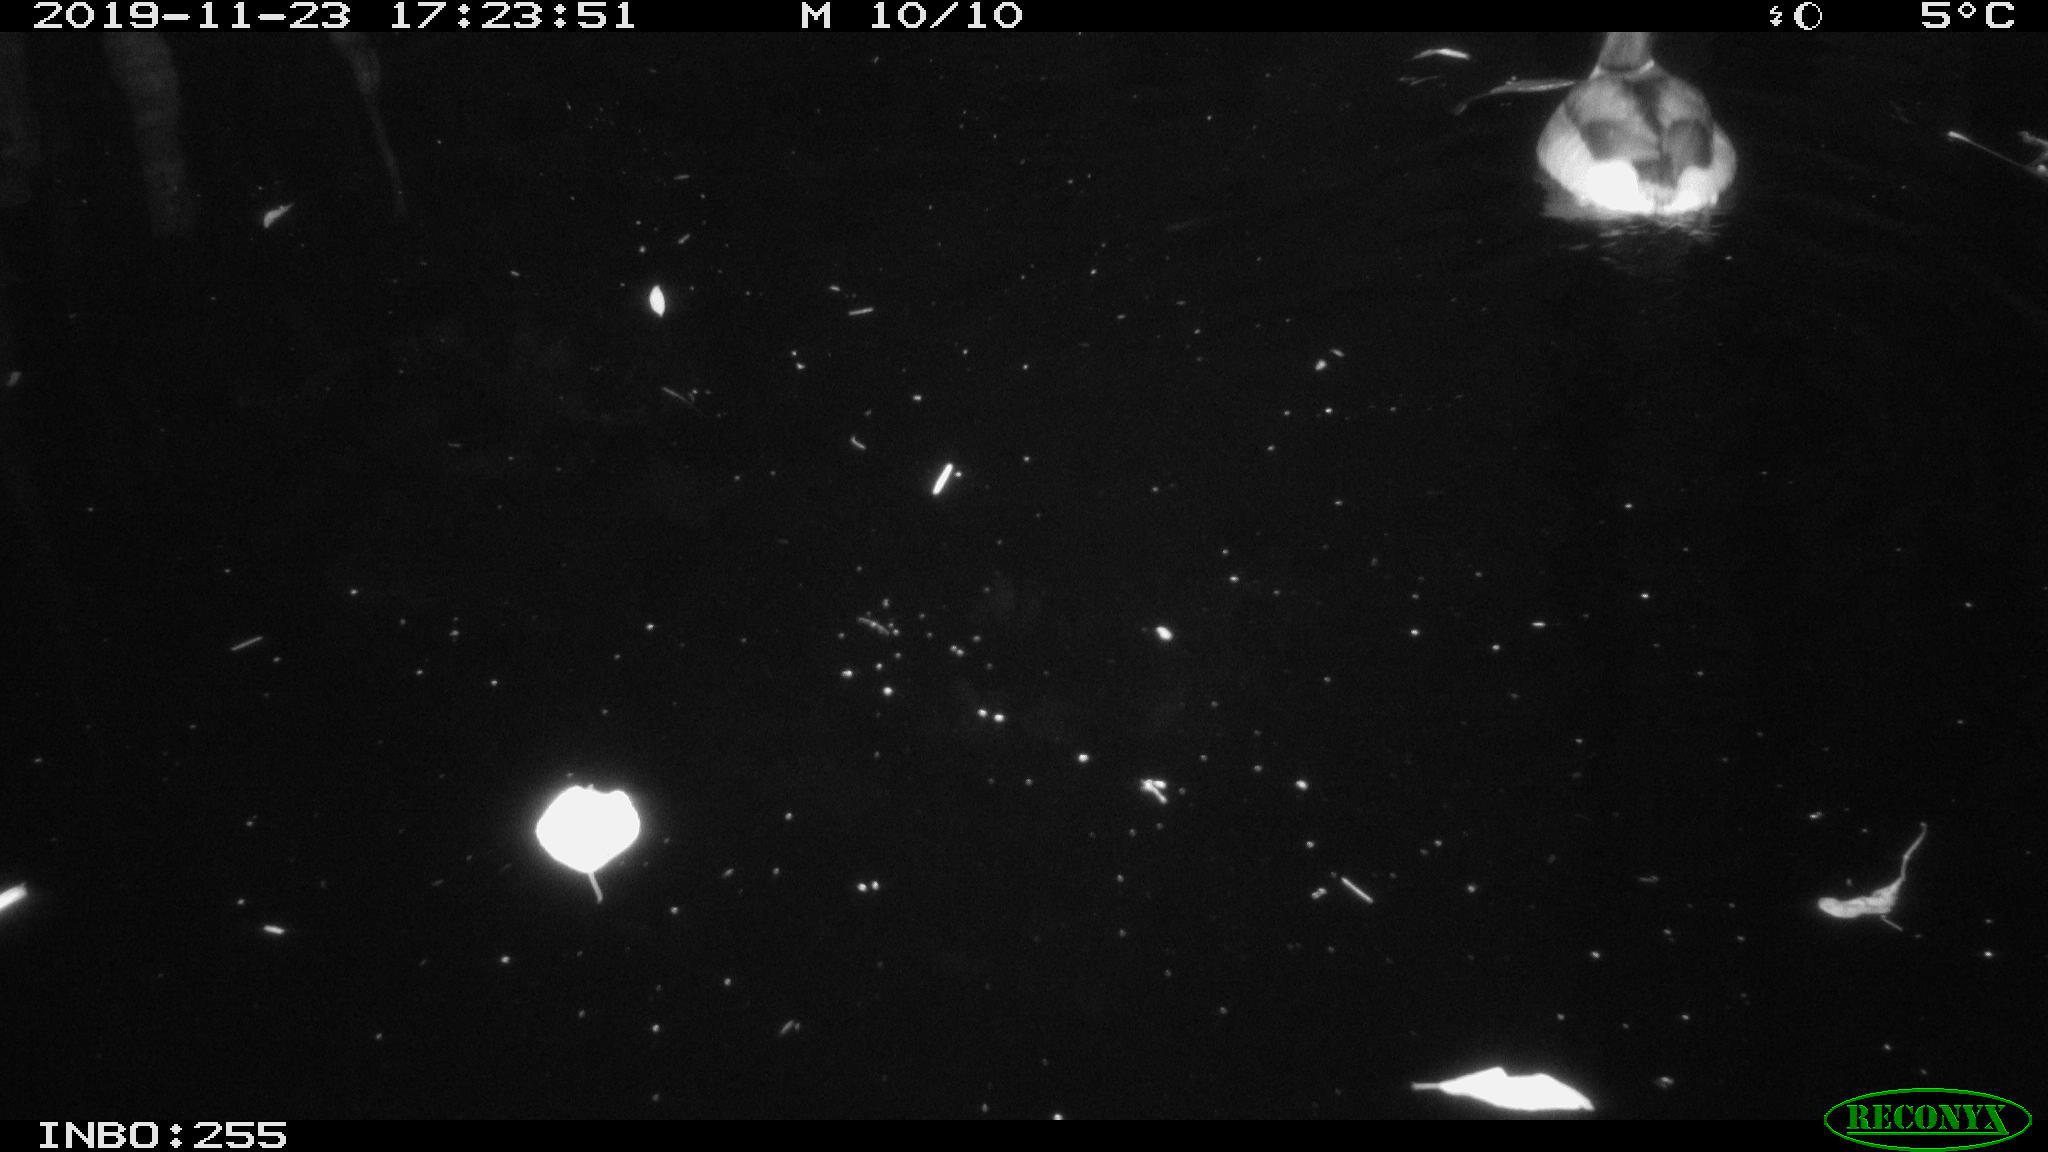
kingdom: Animalia
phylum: Chordata
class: Aves
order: Anseriformes
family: Anatidae
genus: Anas
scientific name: Anas platyrhynchos
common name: Mallard
